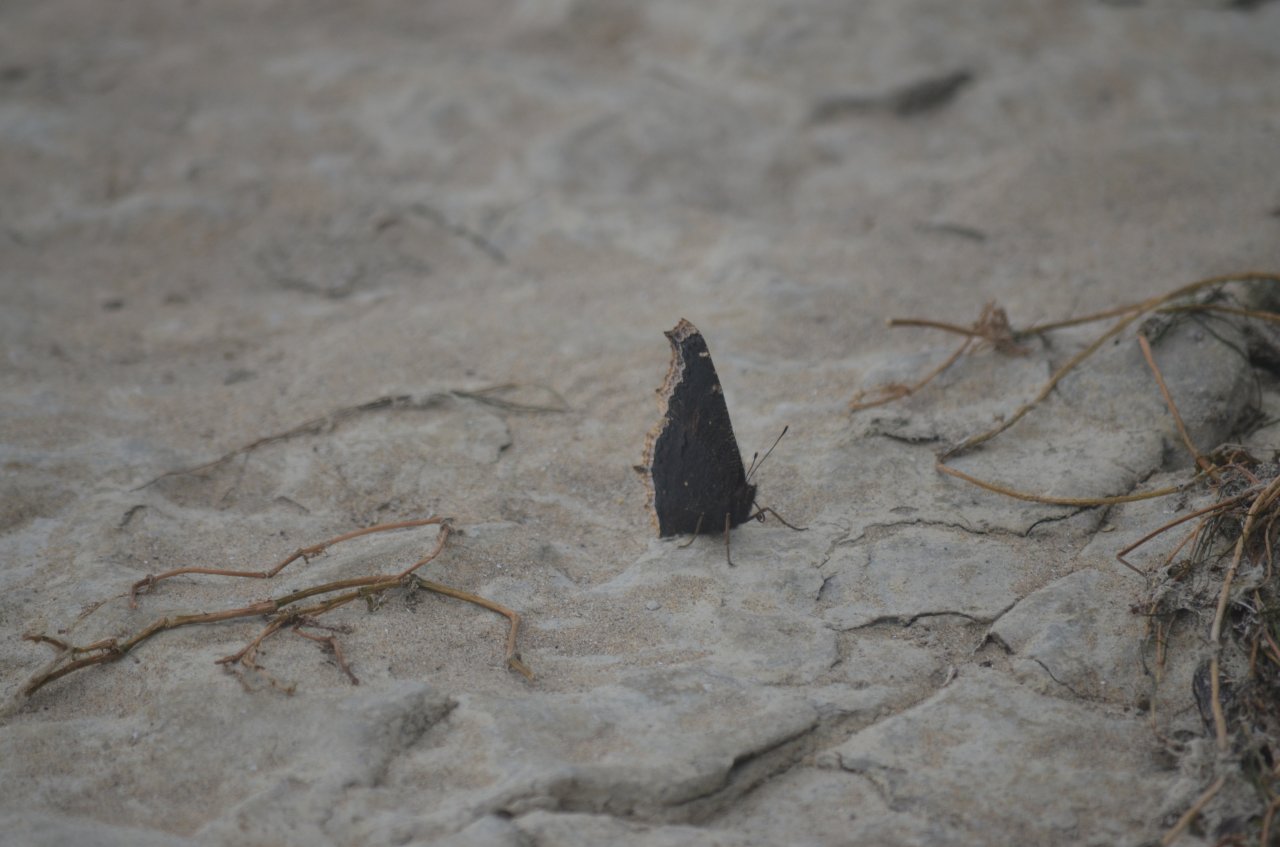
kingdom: Animalia
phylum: Arthropoda
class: Insecta
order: Lepidoptera
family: Nymphalidae
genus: Nymphalis
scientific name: Nymphalis antiopa
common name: Mourning Cloak
